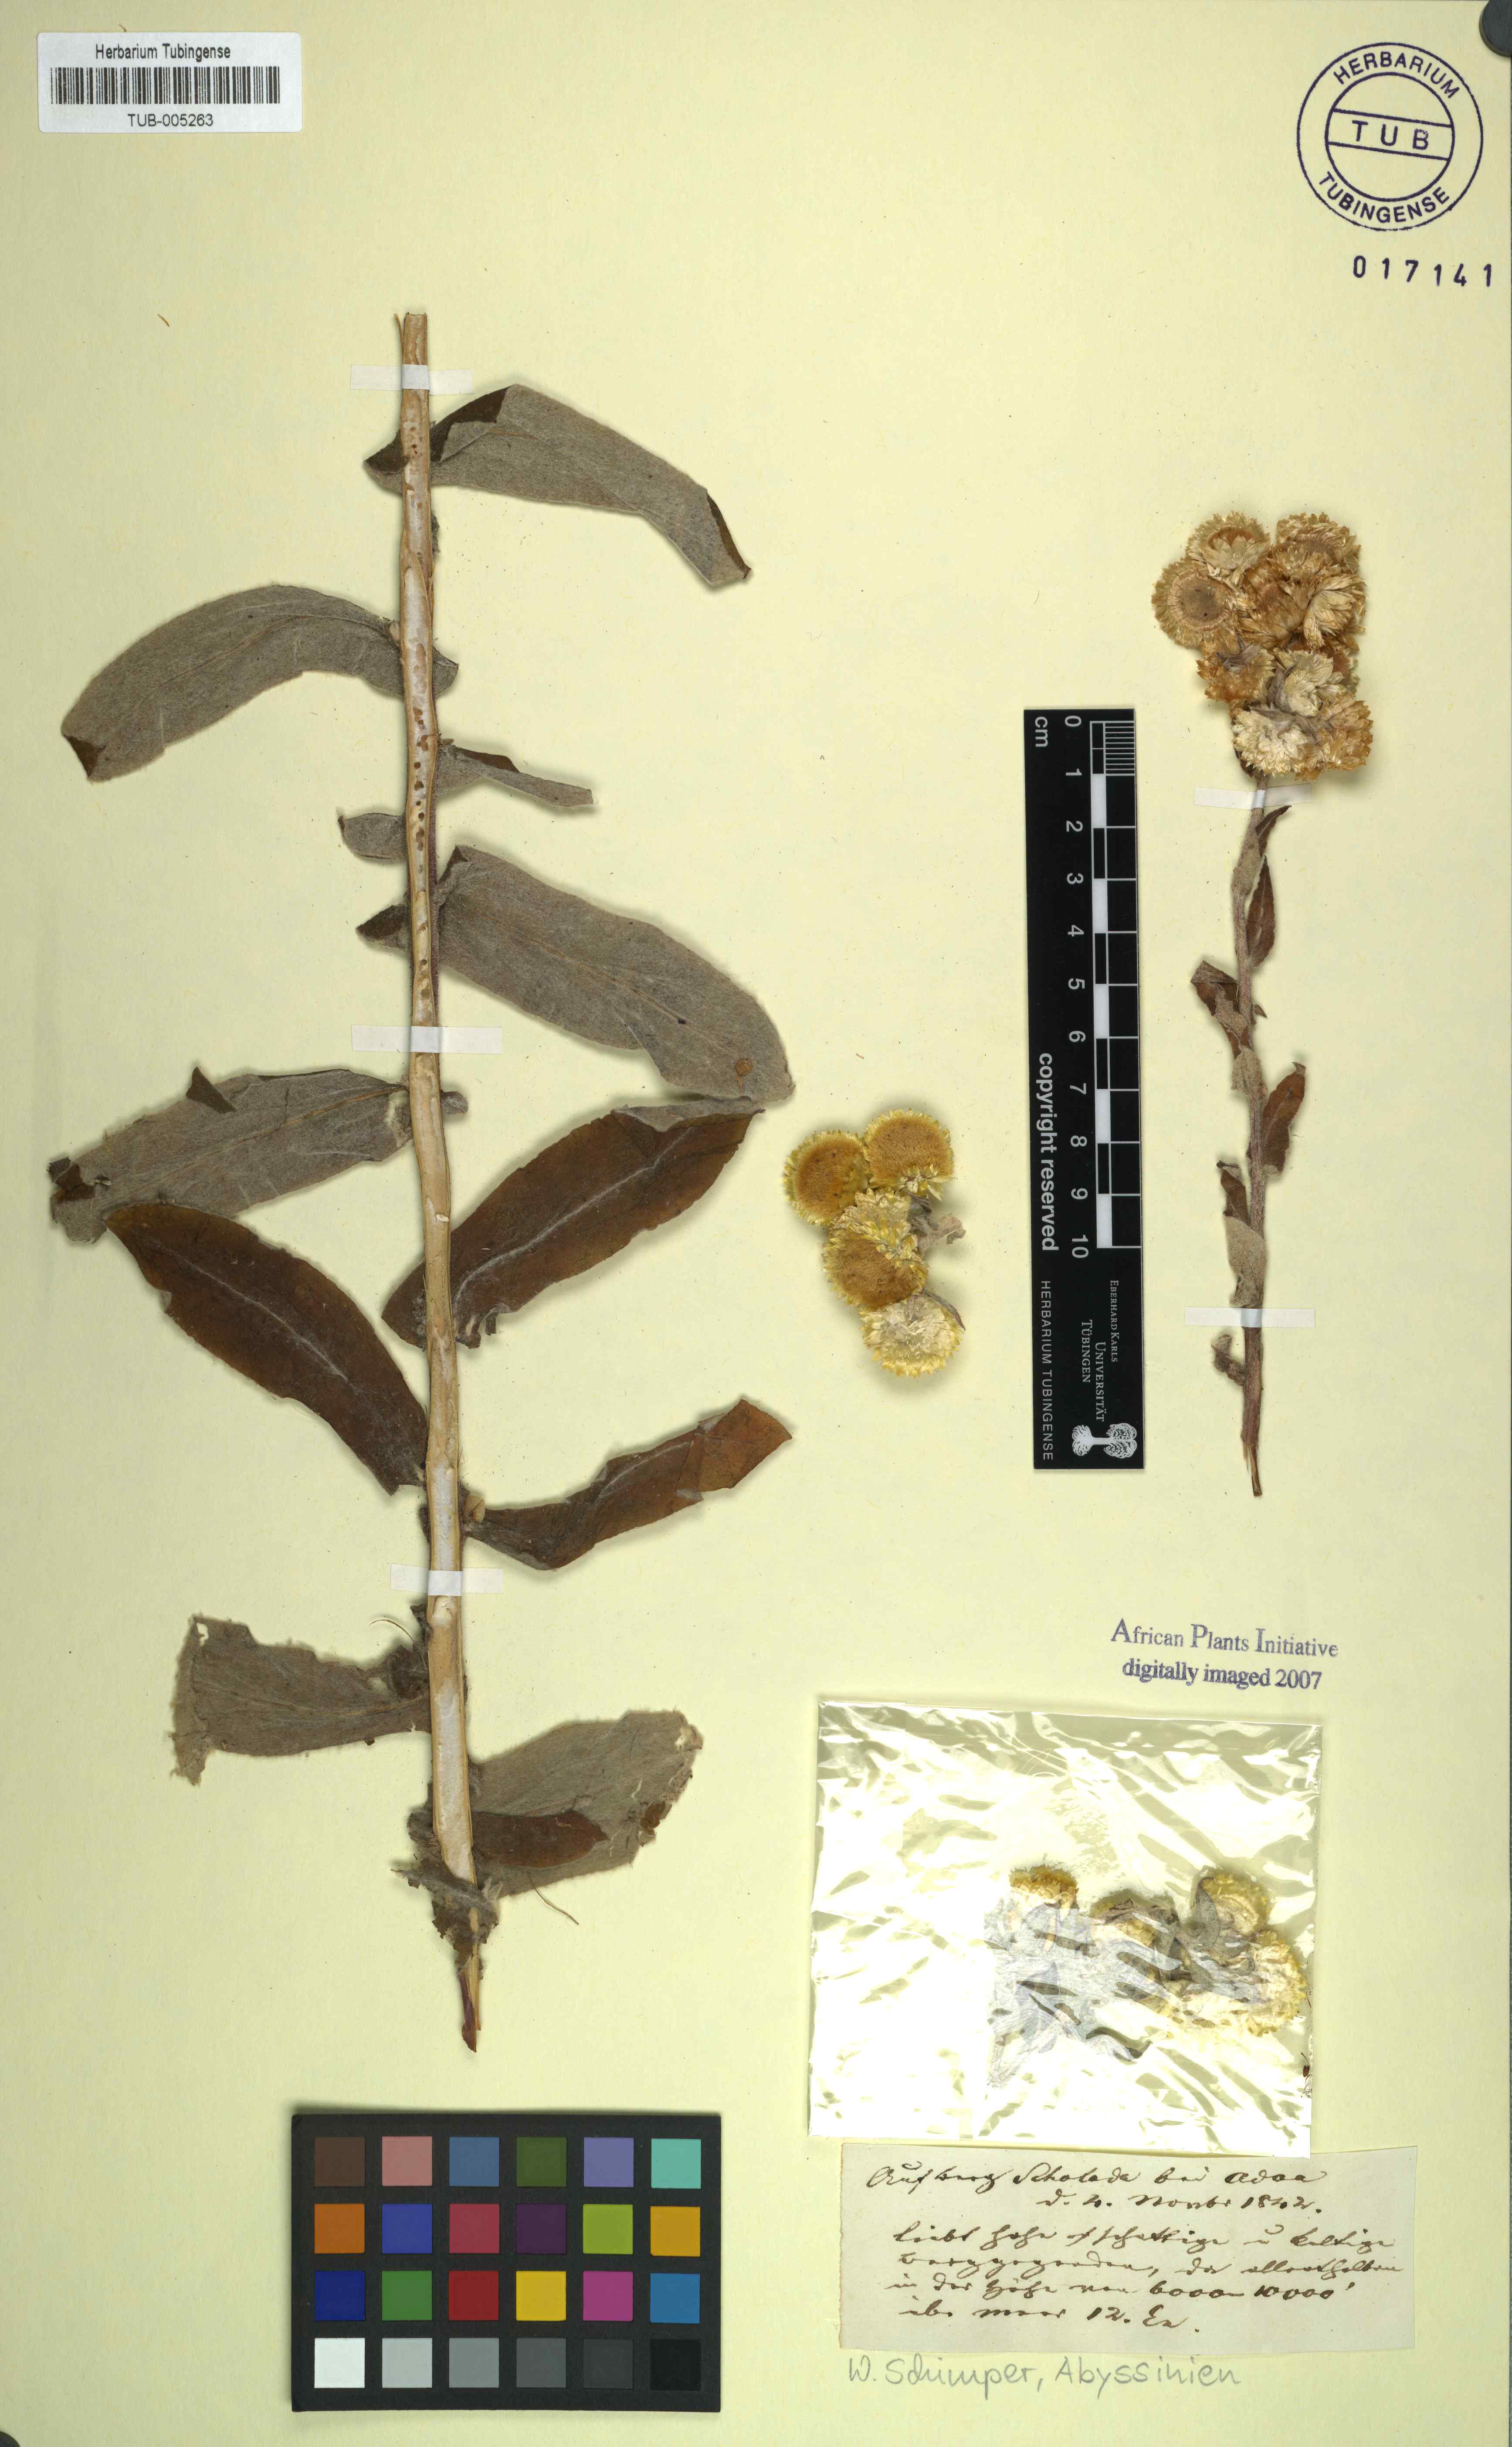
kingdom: Plantae
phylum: Tracheophyta
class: Magnoliopsida
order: Asterales
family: Asteraceae
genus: Helichrysum
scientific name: Helichrysum
